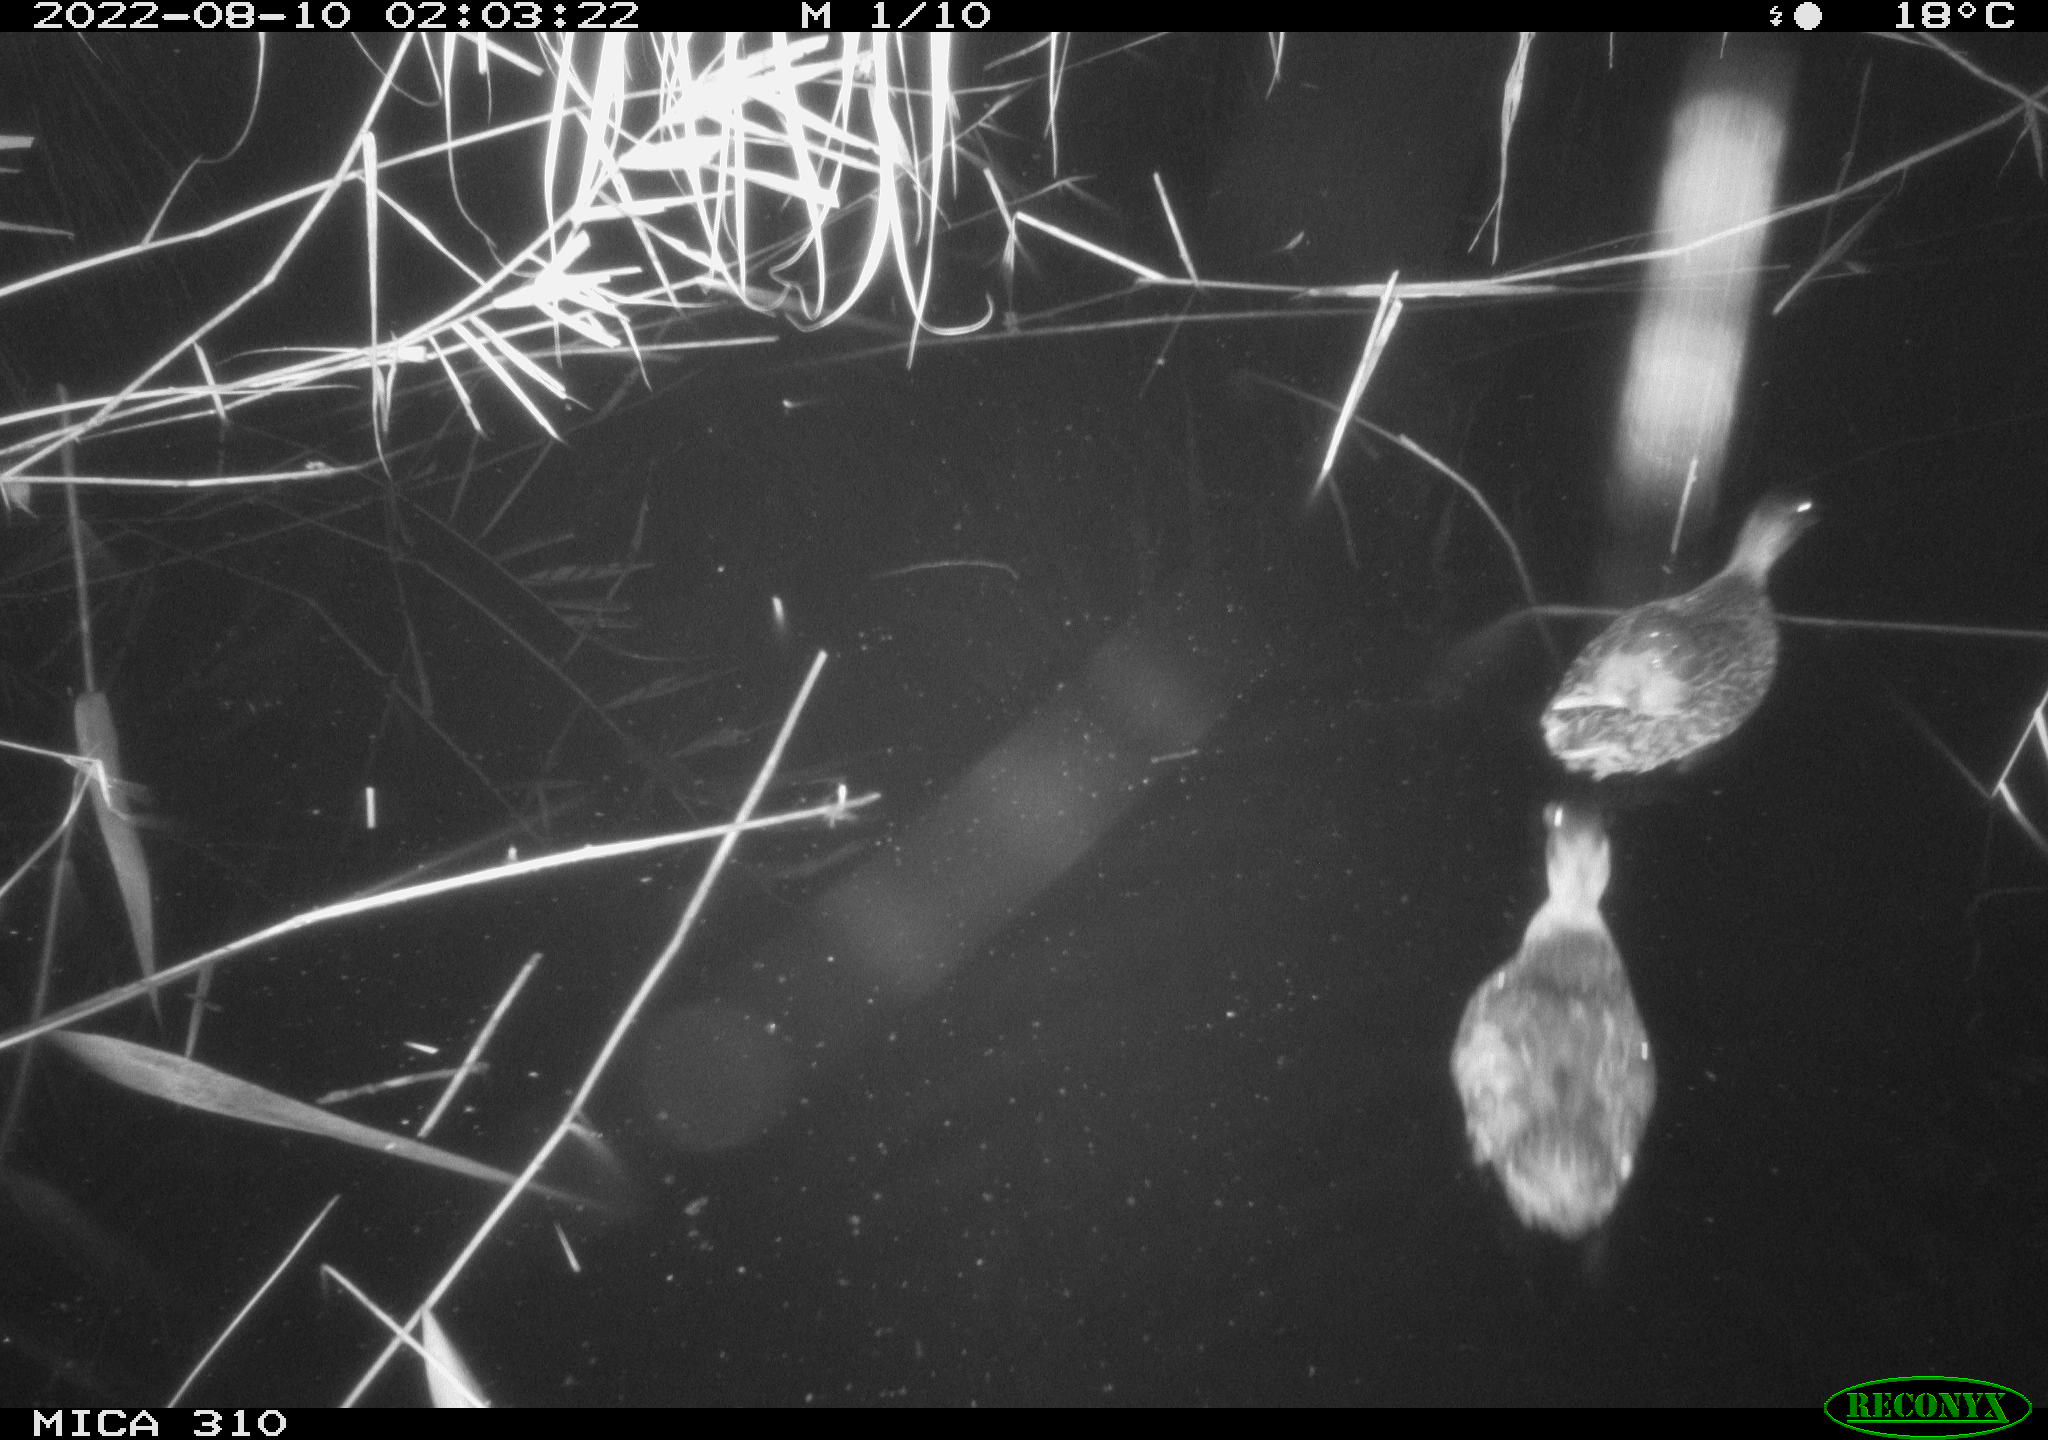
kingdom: Animalia
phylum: Chordata
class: Aves
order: Anseriformes
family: Anatidae
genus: Anas
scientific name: Anas platyrhynchos
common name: Mallard
